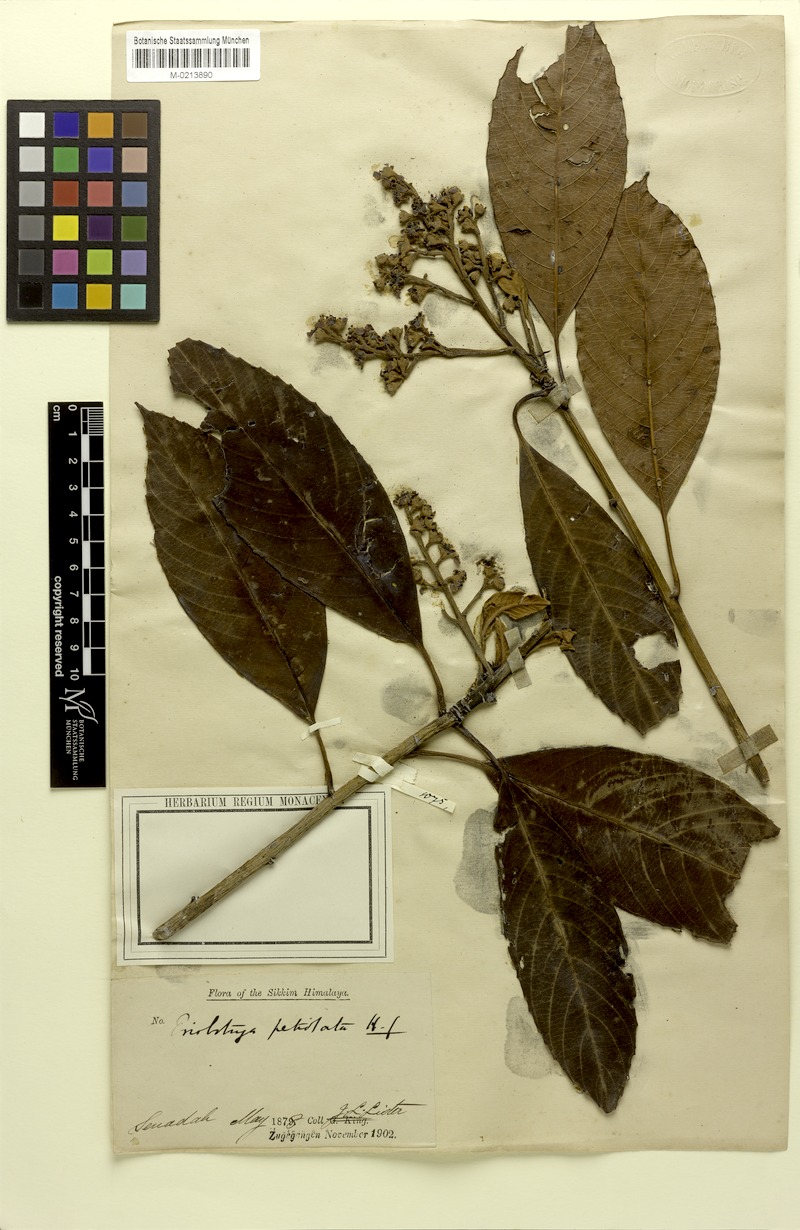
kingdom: Plantae
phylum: Tracheophyta
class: Magnoliopsida
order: Rosales
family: Rosaceae
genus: Rhaphiolepis
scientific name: Rhaphiolepis petiolata
